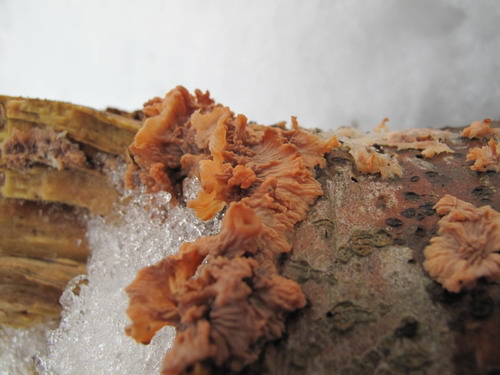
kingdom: Fungi
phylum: Basidiomycota
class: Agaricomycetes
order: Polyporales
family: Meruliaceae
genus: Phlebia
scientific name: Phlebia radiata
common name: stråle-åresvamp
